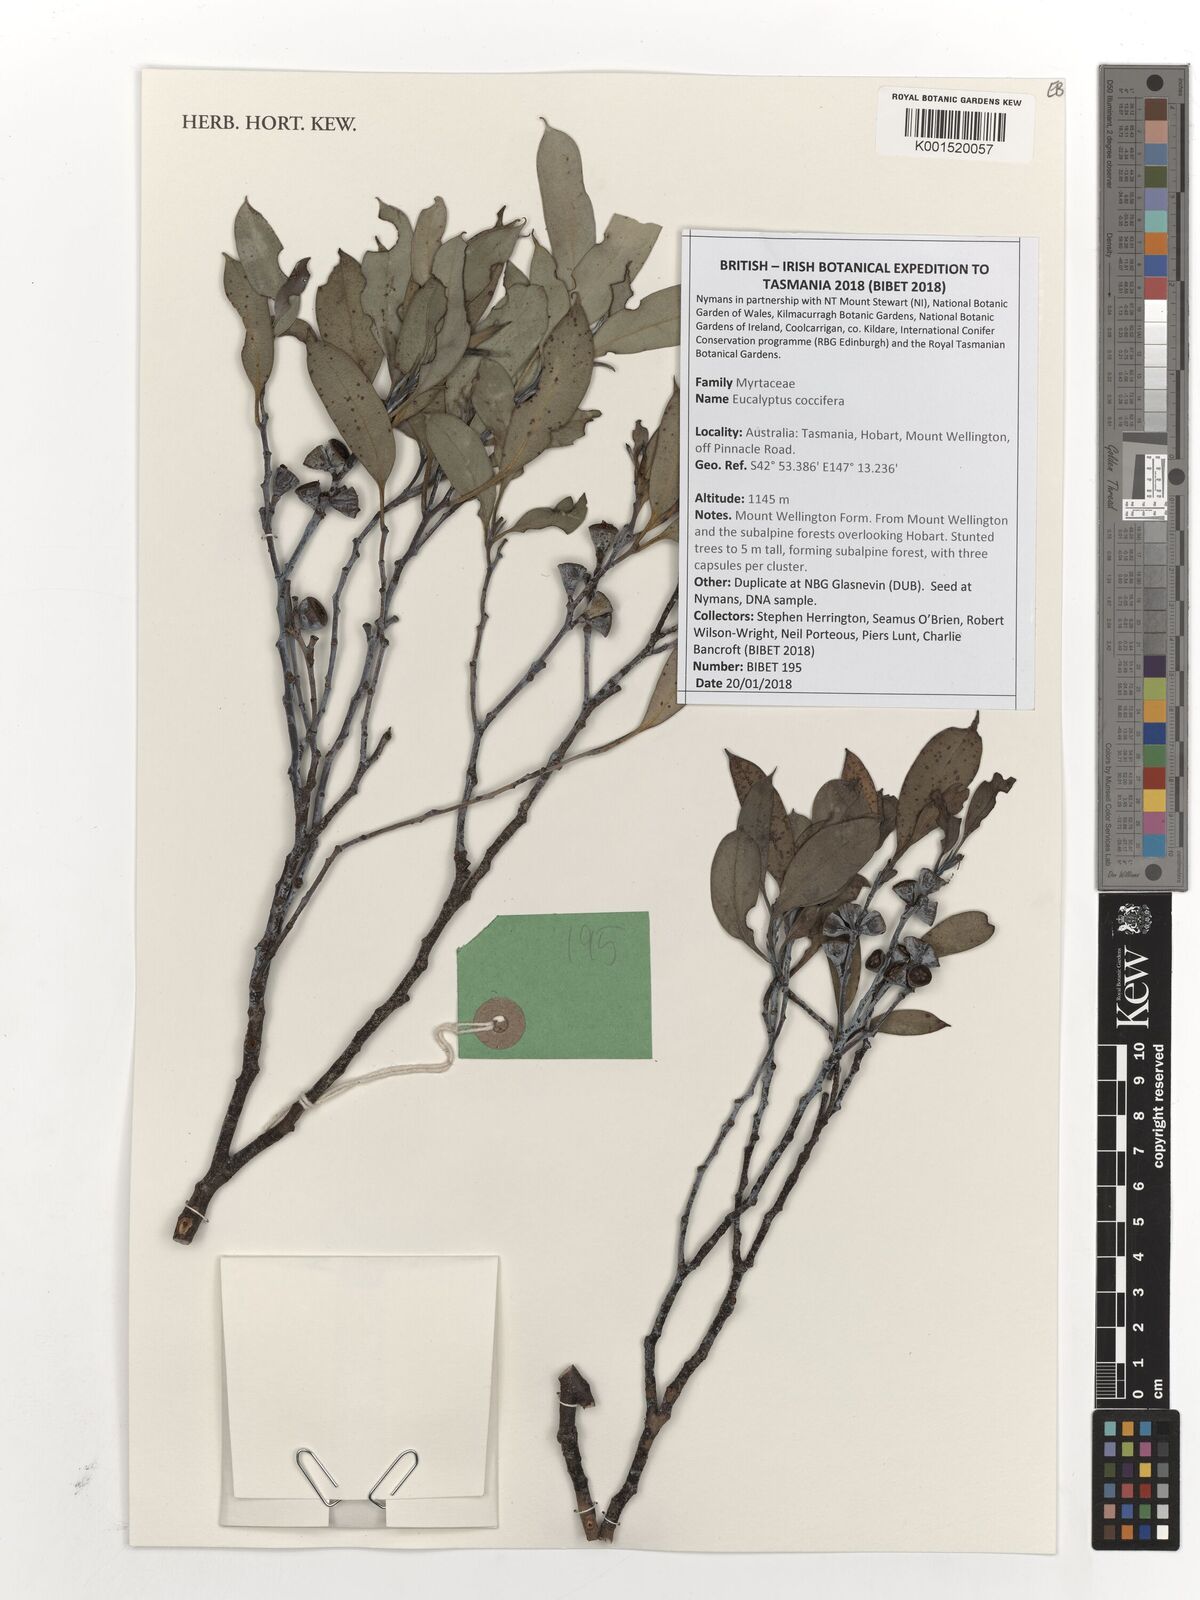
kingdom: Plantae
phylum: Tracheophyta
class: Magnoliopsida
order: Myrtales
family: Myrtaceae
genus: Eucalyptus
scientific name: Eucalyptus coccifera
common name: Tasmanian snow-gum
